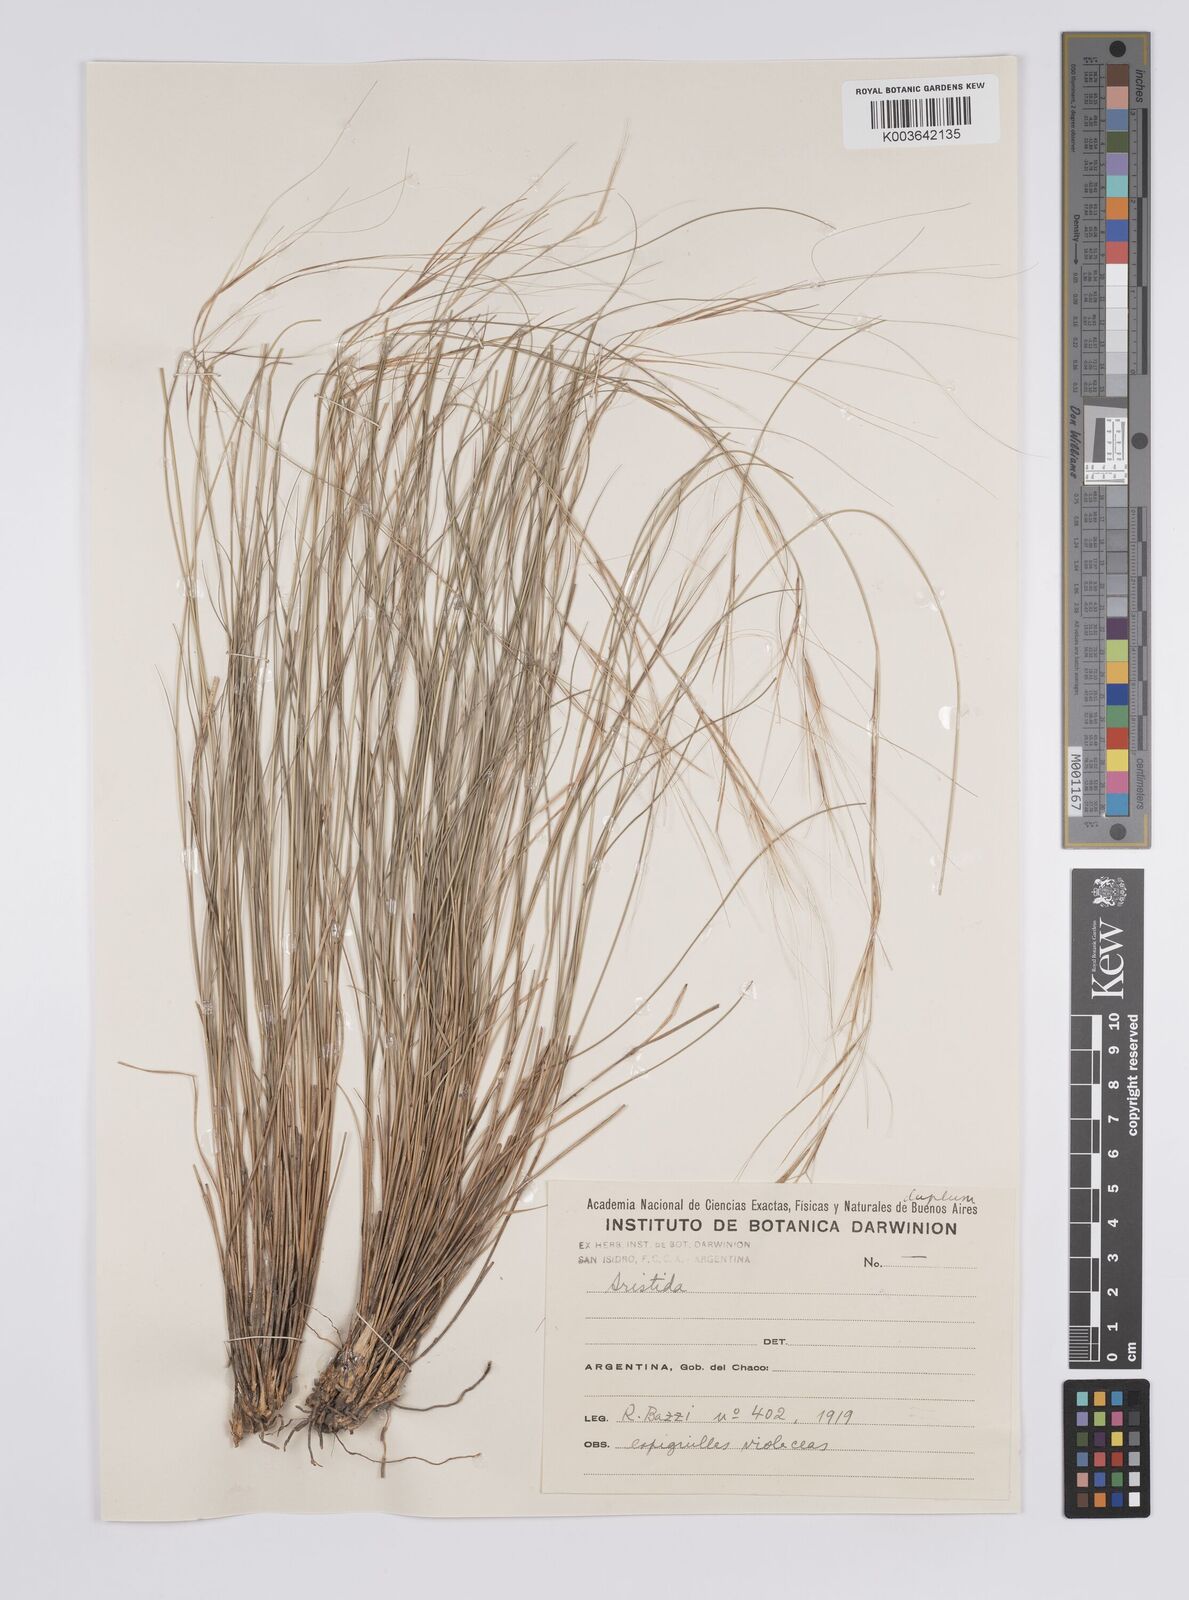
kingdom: Plantae
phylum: Tracheophyta
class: Liliopsida
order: Poales
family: Poaceae
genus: Aristida
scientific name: Aristida
